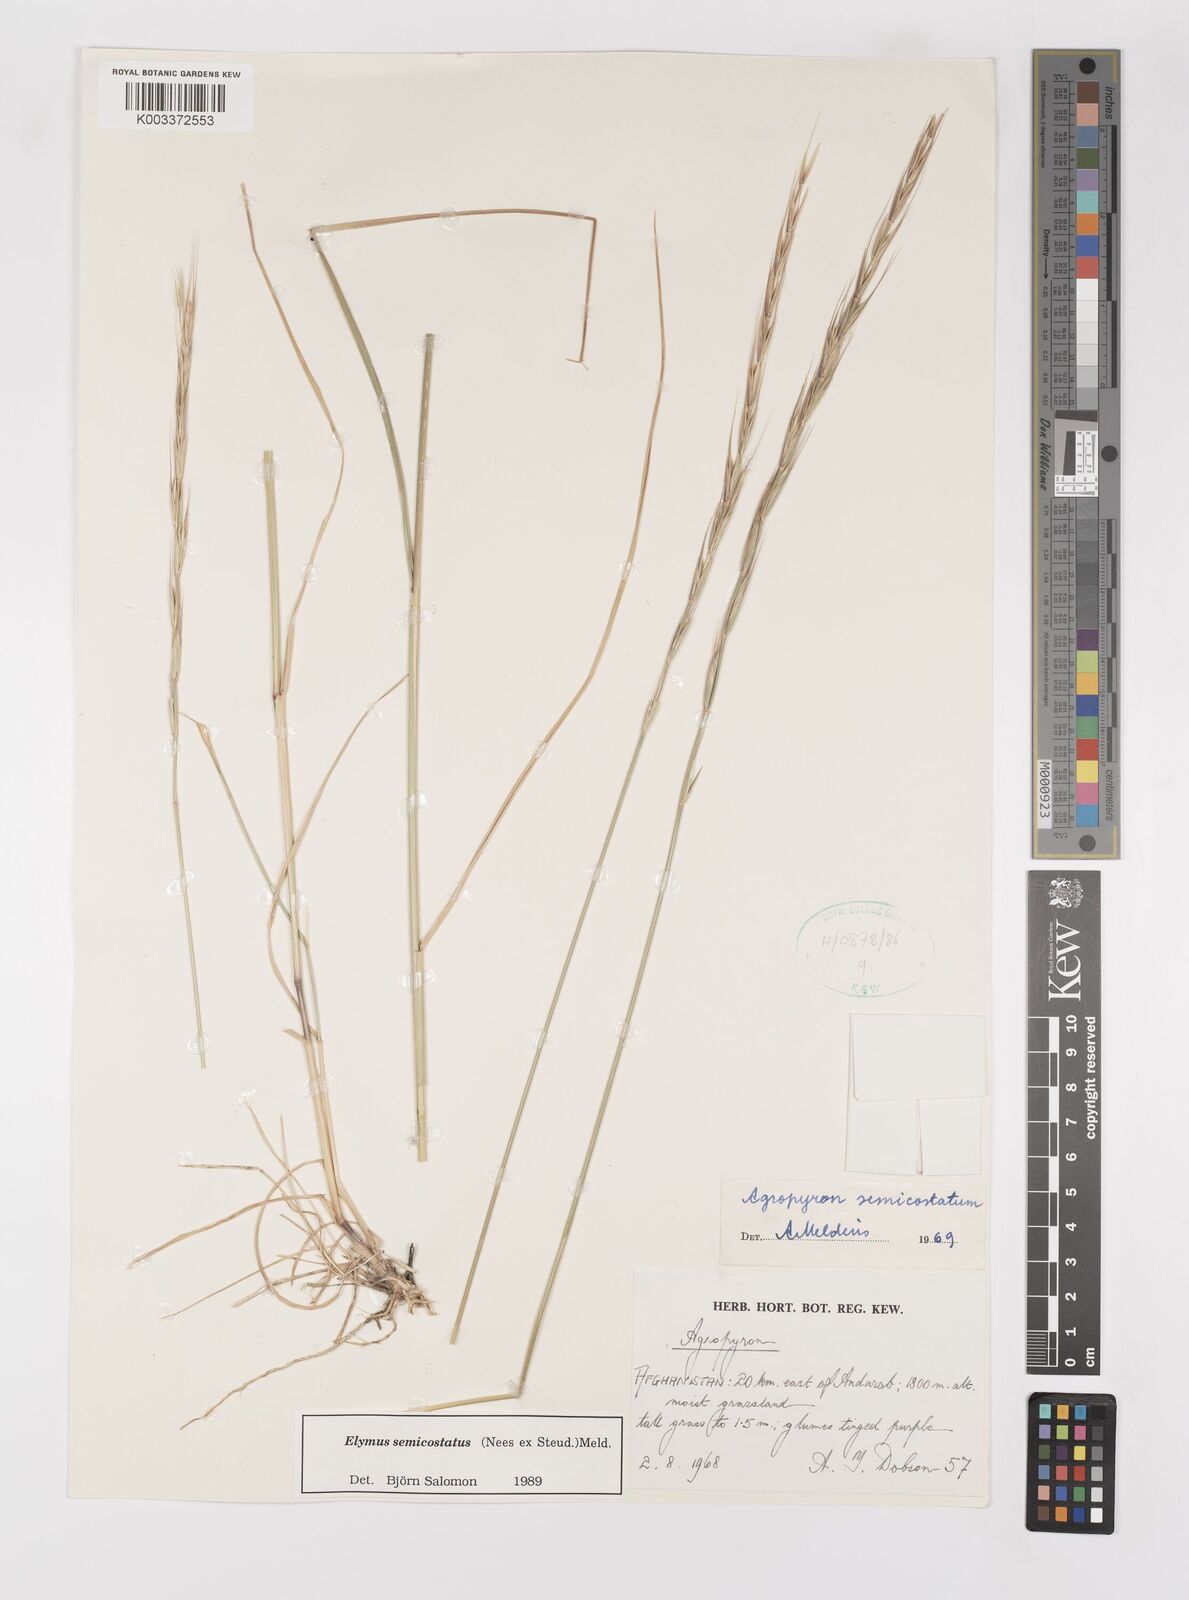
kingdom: Plantae
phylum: Tracheophyta
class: Liliopsida
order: Poales
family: Poaceae
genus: Elymus
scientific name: Elymus semicostatus
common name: Drooping wildrye
